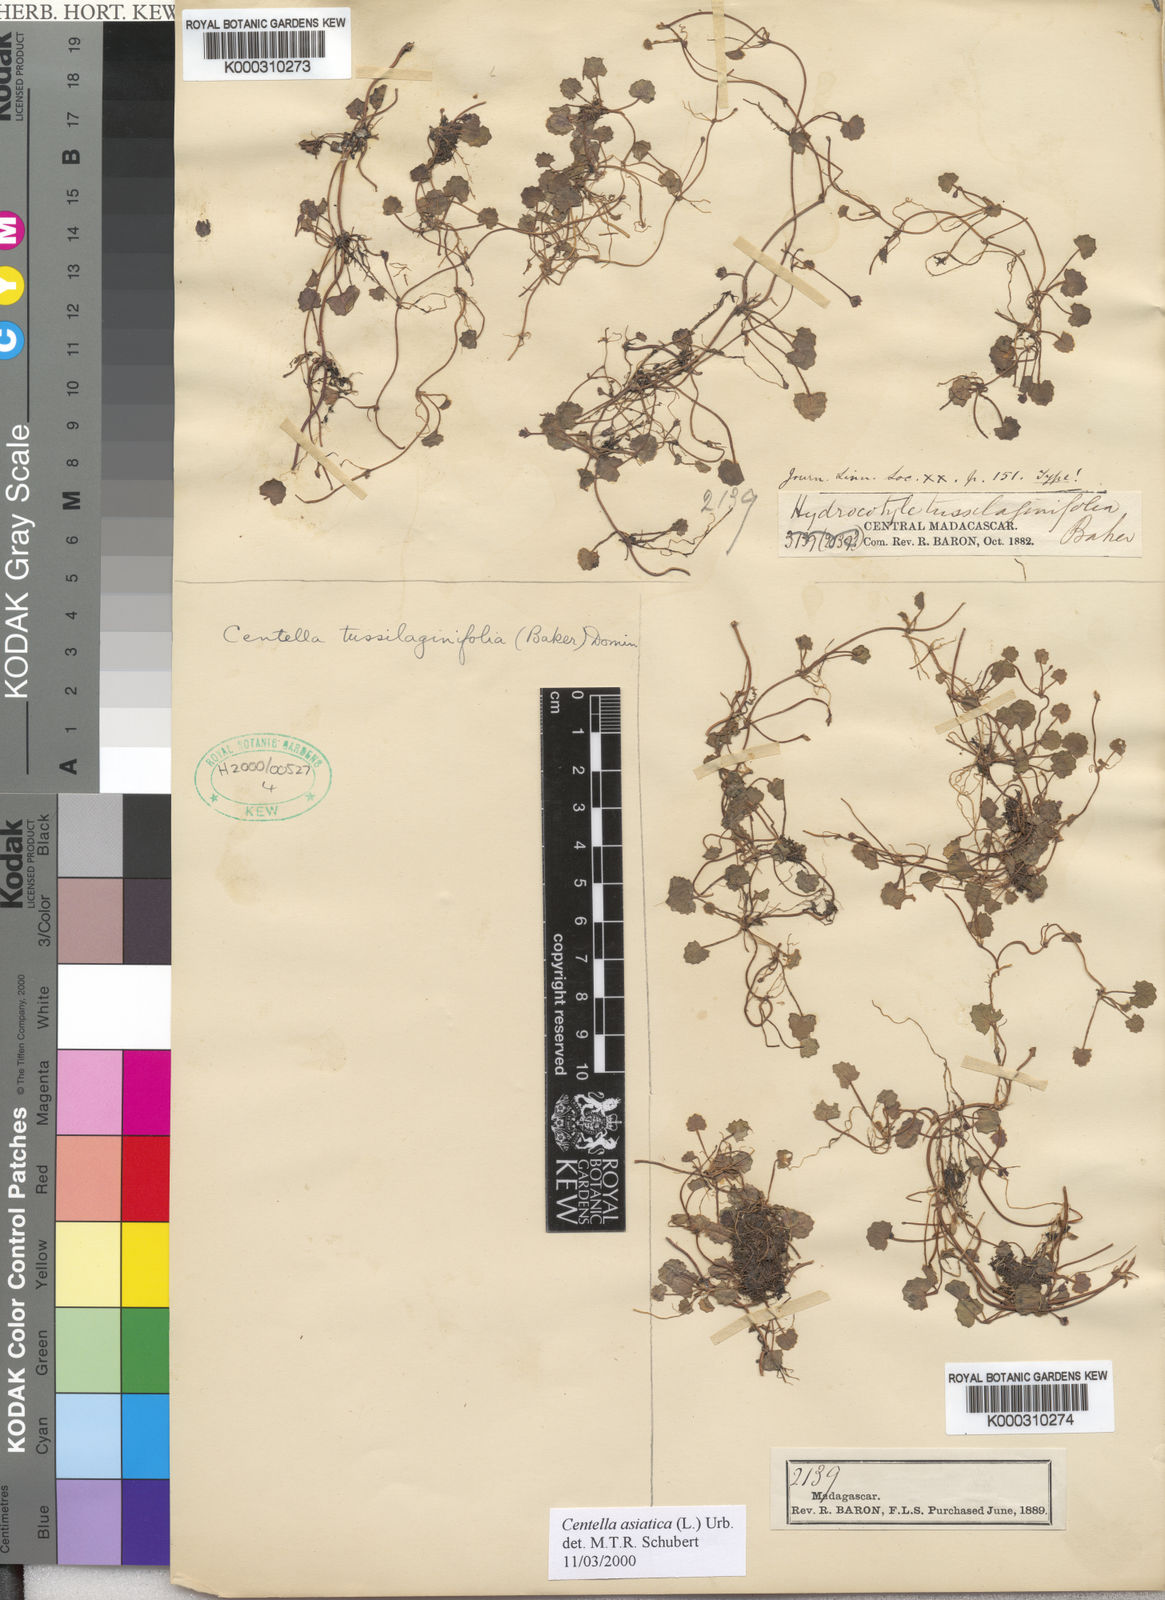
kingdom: Plantae
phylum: Tracheophyta
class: Magnoliopsida
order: Apiales
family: Apiaceae
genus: Centella
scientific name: Centella tussilaginifolia
